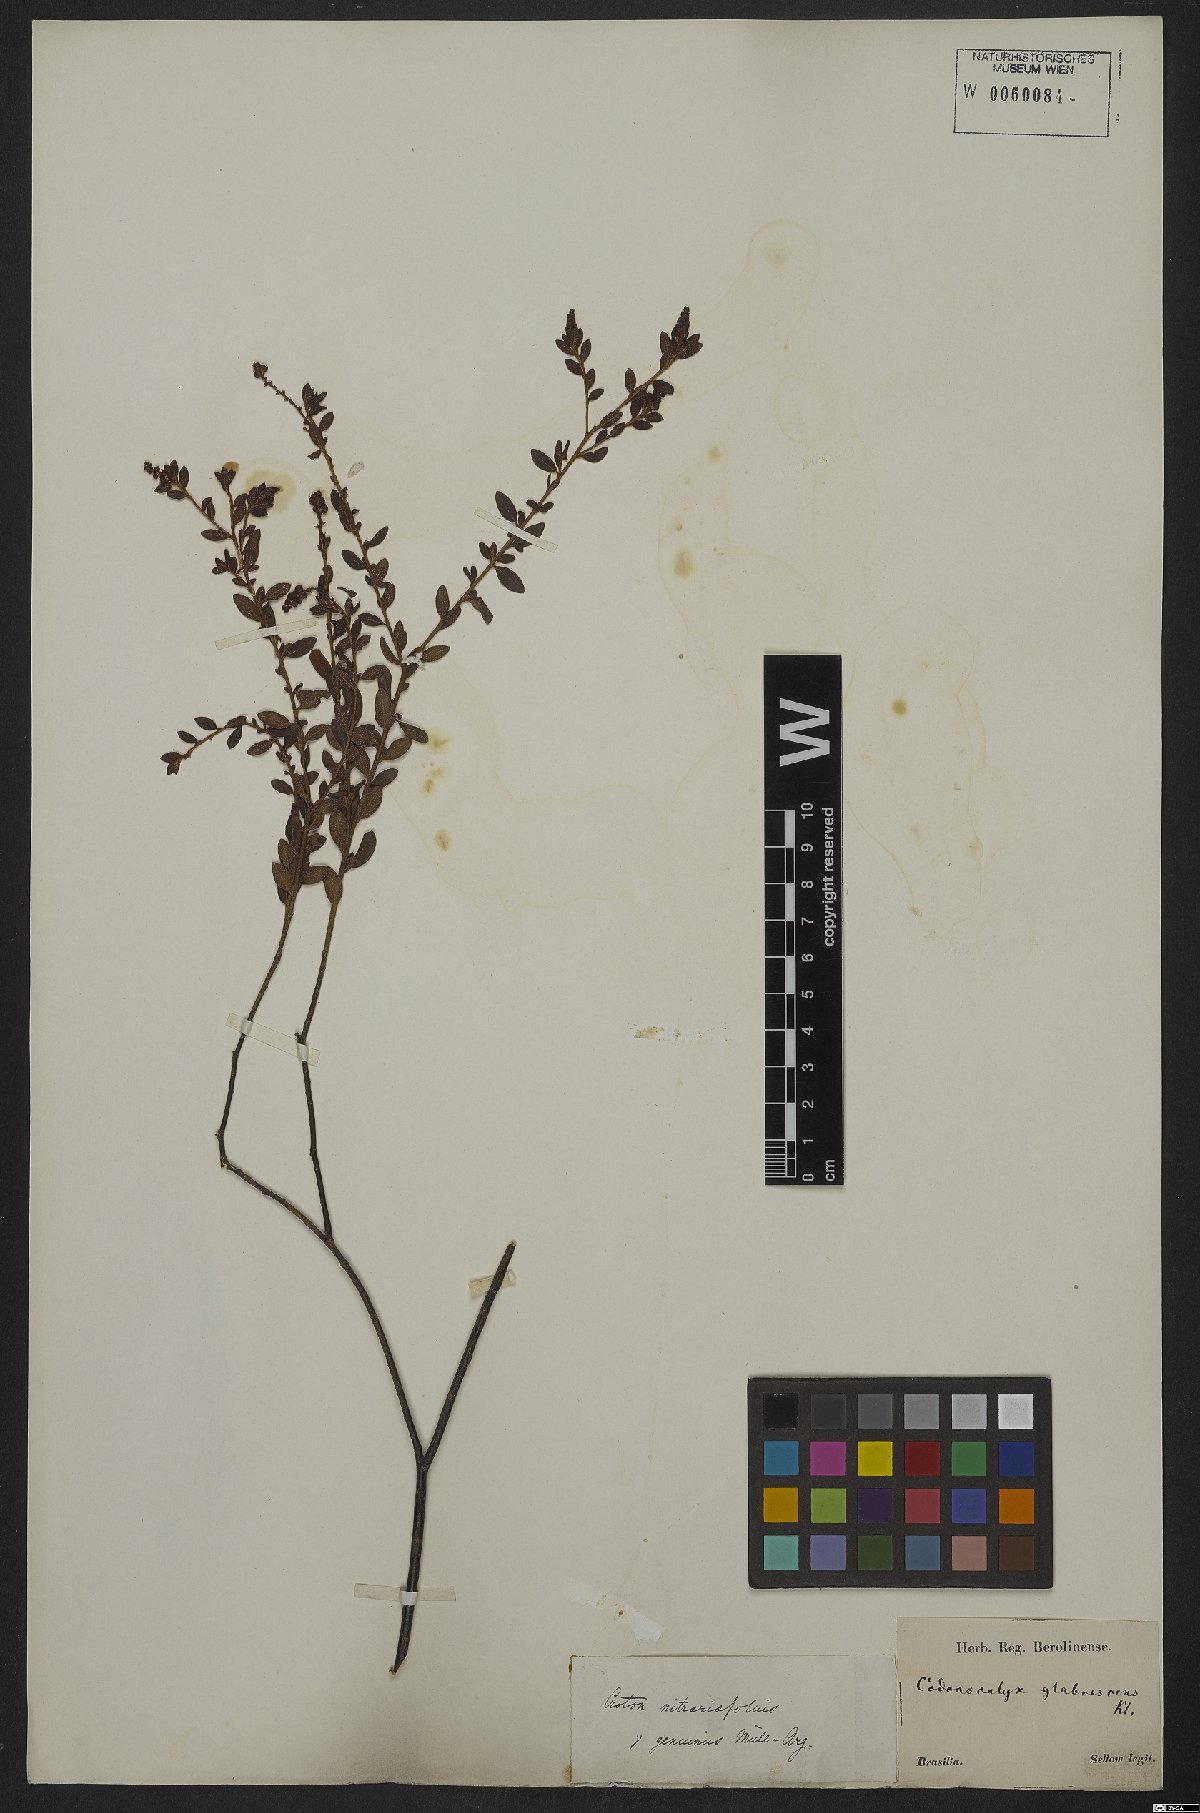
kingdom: Plantae
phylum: Tracheophyta
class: Magnoliopsida
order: Malpighiales
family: Euphorbiaceae
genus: Croton
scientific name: Croton nitrariifolius
